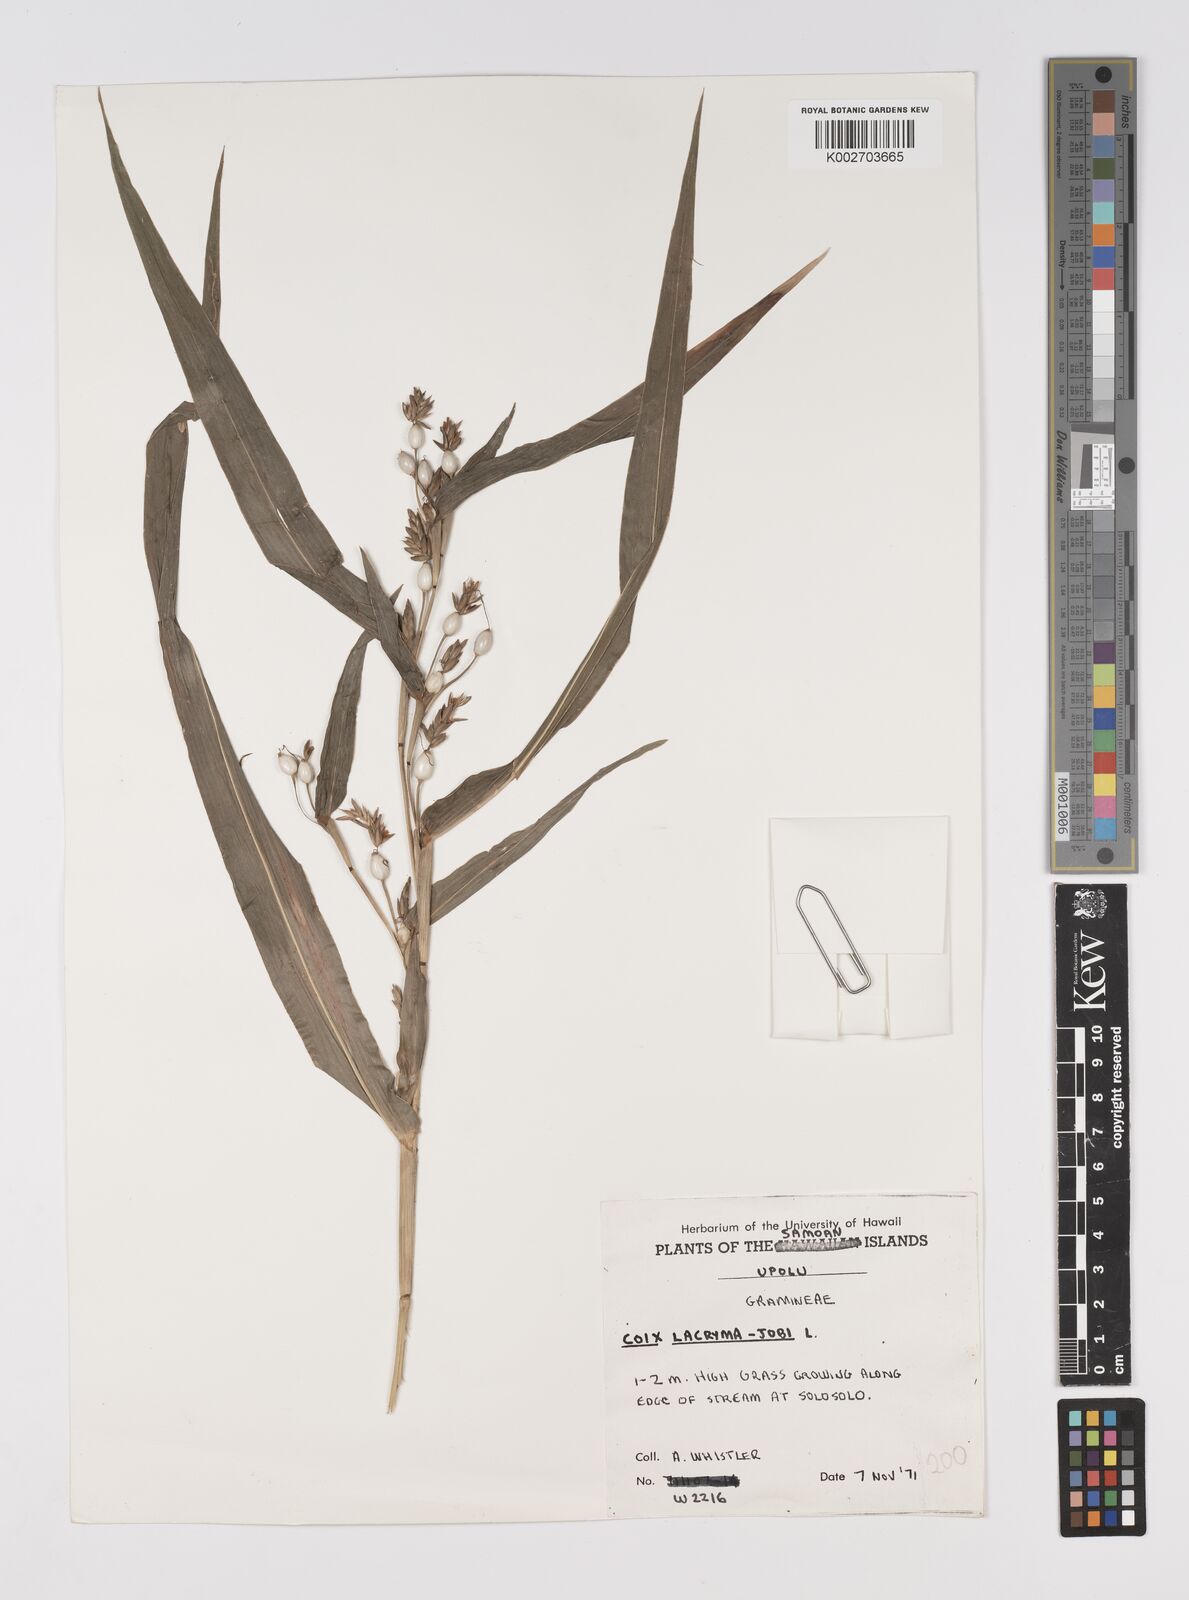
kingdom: Plantae
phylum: Tracheophyta
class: Liliopsida
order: Poales
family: Poaceae
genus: Coix
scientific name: Coix lacryma-jobi
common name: Job's tears
